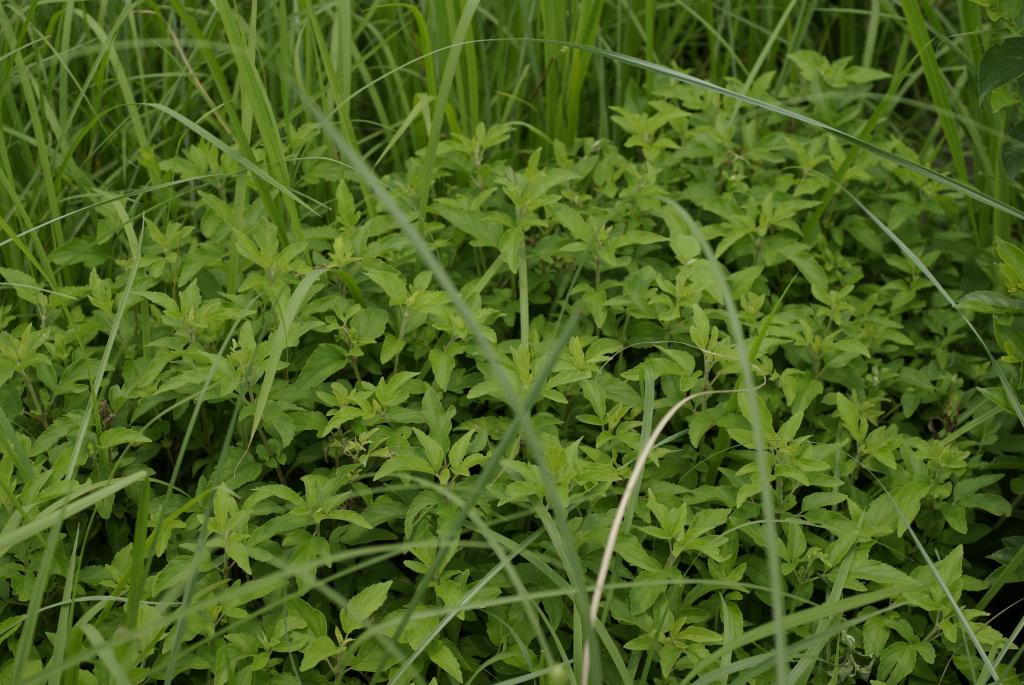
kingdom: Plantae
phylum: Tracheophyta
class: Magnoliopsida
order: Asterales
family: Asteraceae
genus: Eupatorium
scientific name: Eupatorium formosanum
